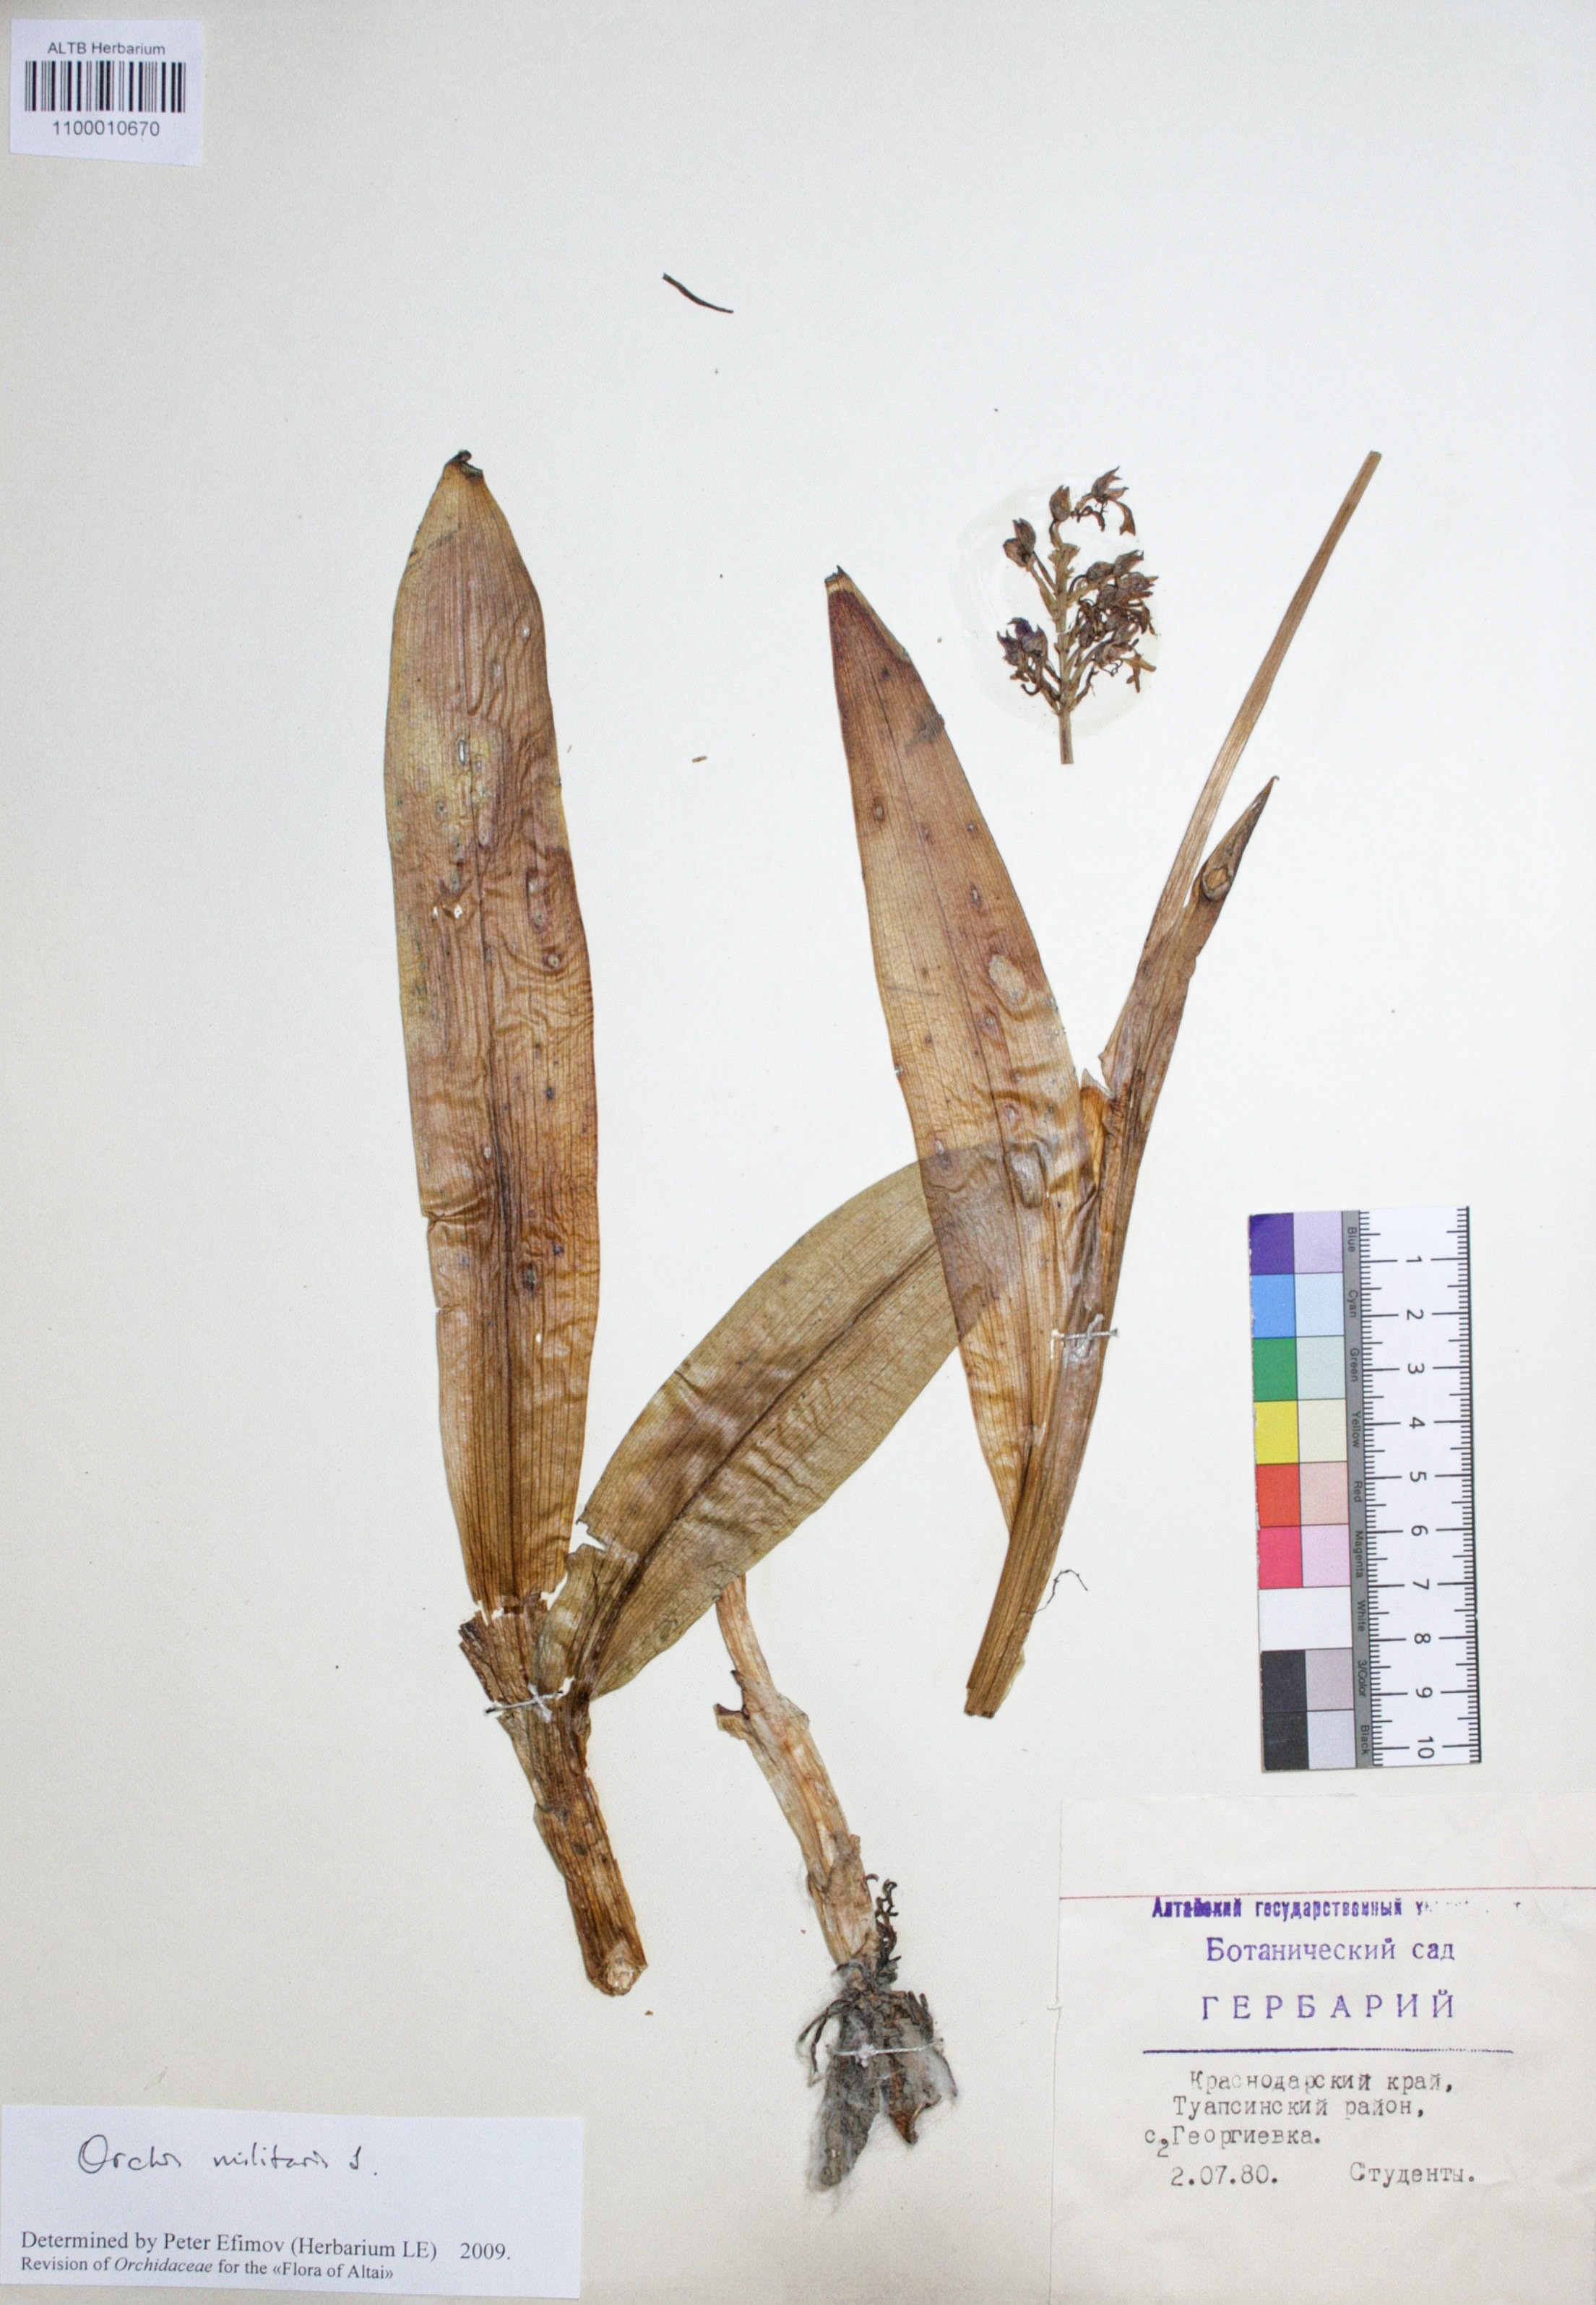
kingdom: Plantae
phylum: Tracheophyta
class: Liliopsida
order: Asparagales
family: Orchidaceae
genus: Orchis
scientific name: Orchis militaris
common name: Military orchid
